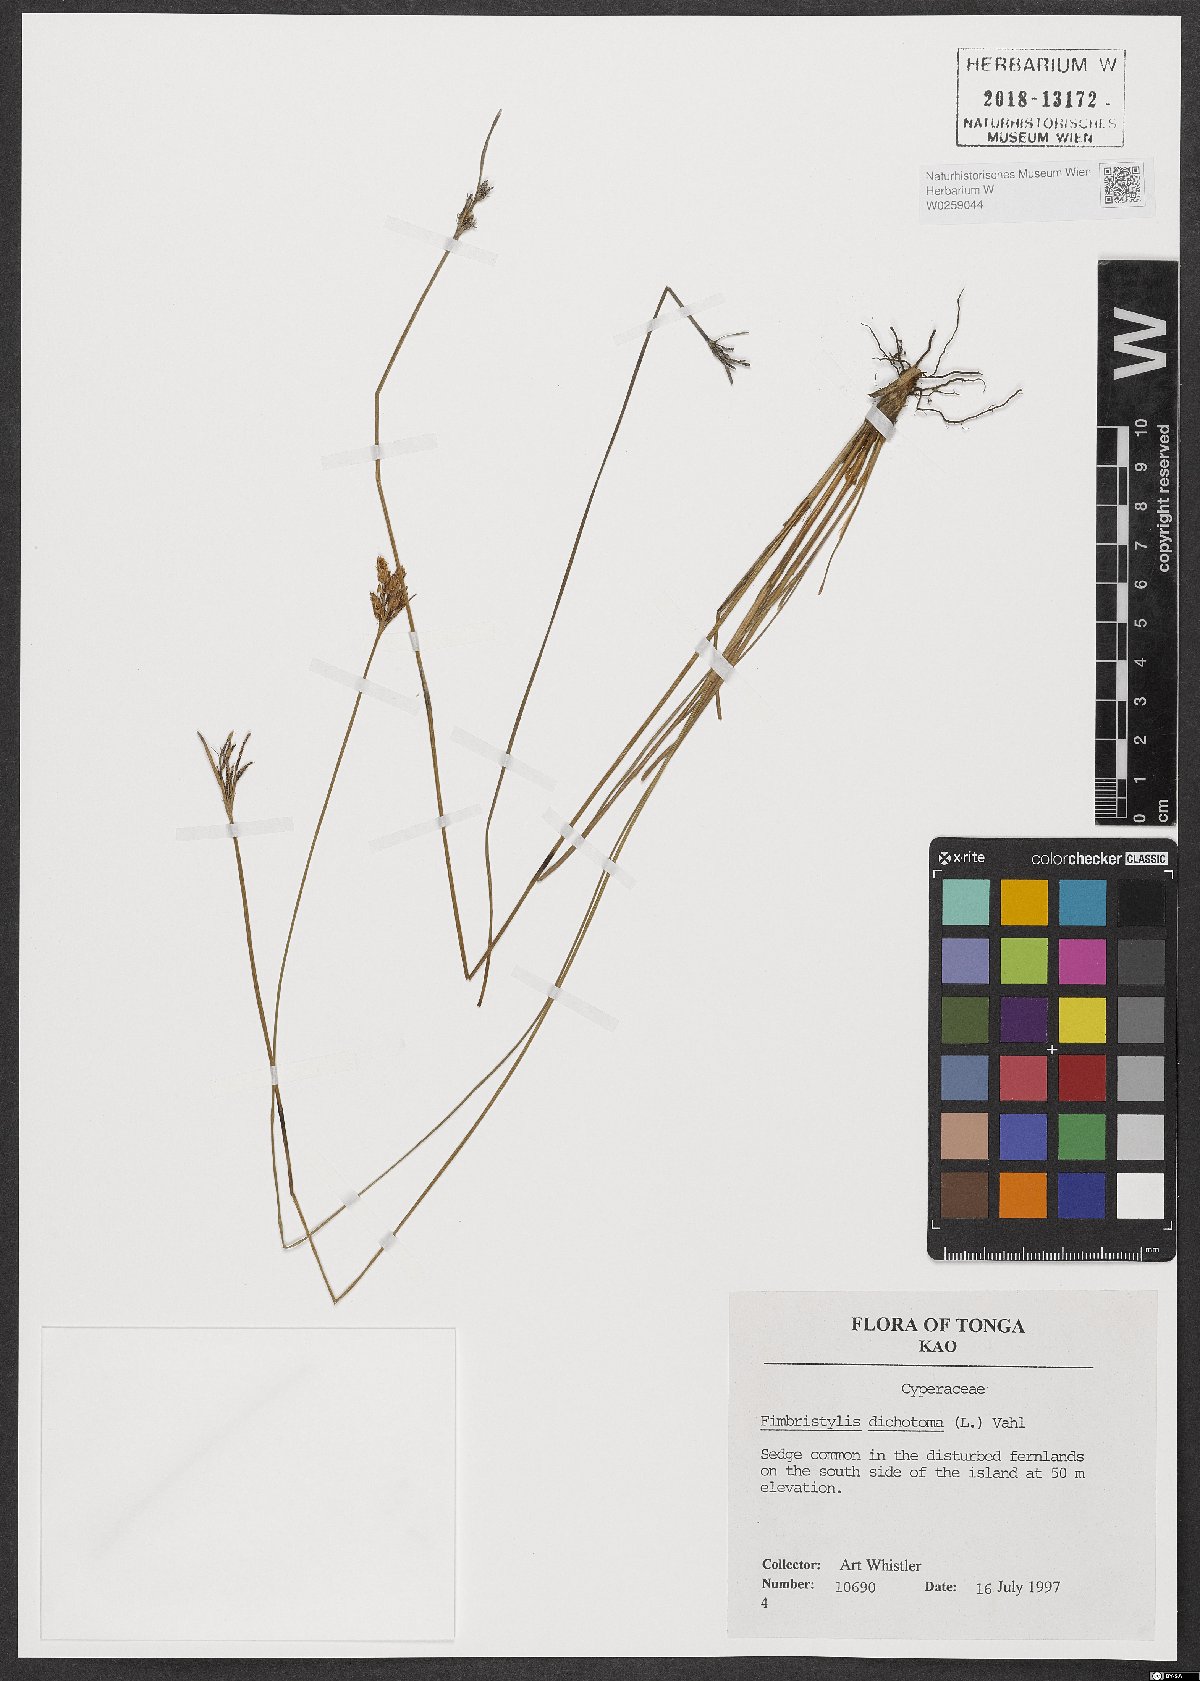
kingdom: Plantae
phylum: Tracheophyta
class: Liliopsida
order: Poales
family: Cyperaceae
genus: Fimbristylis
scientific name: Fimbristylis dichotoma
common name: Forked fimbry
